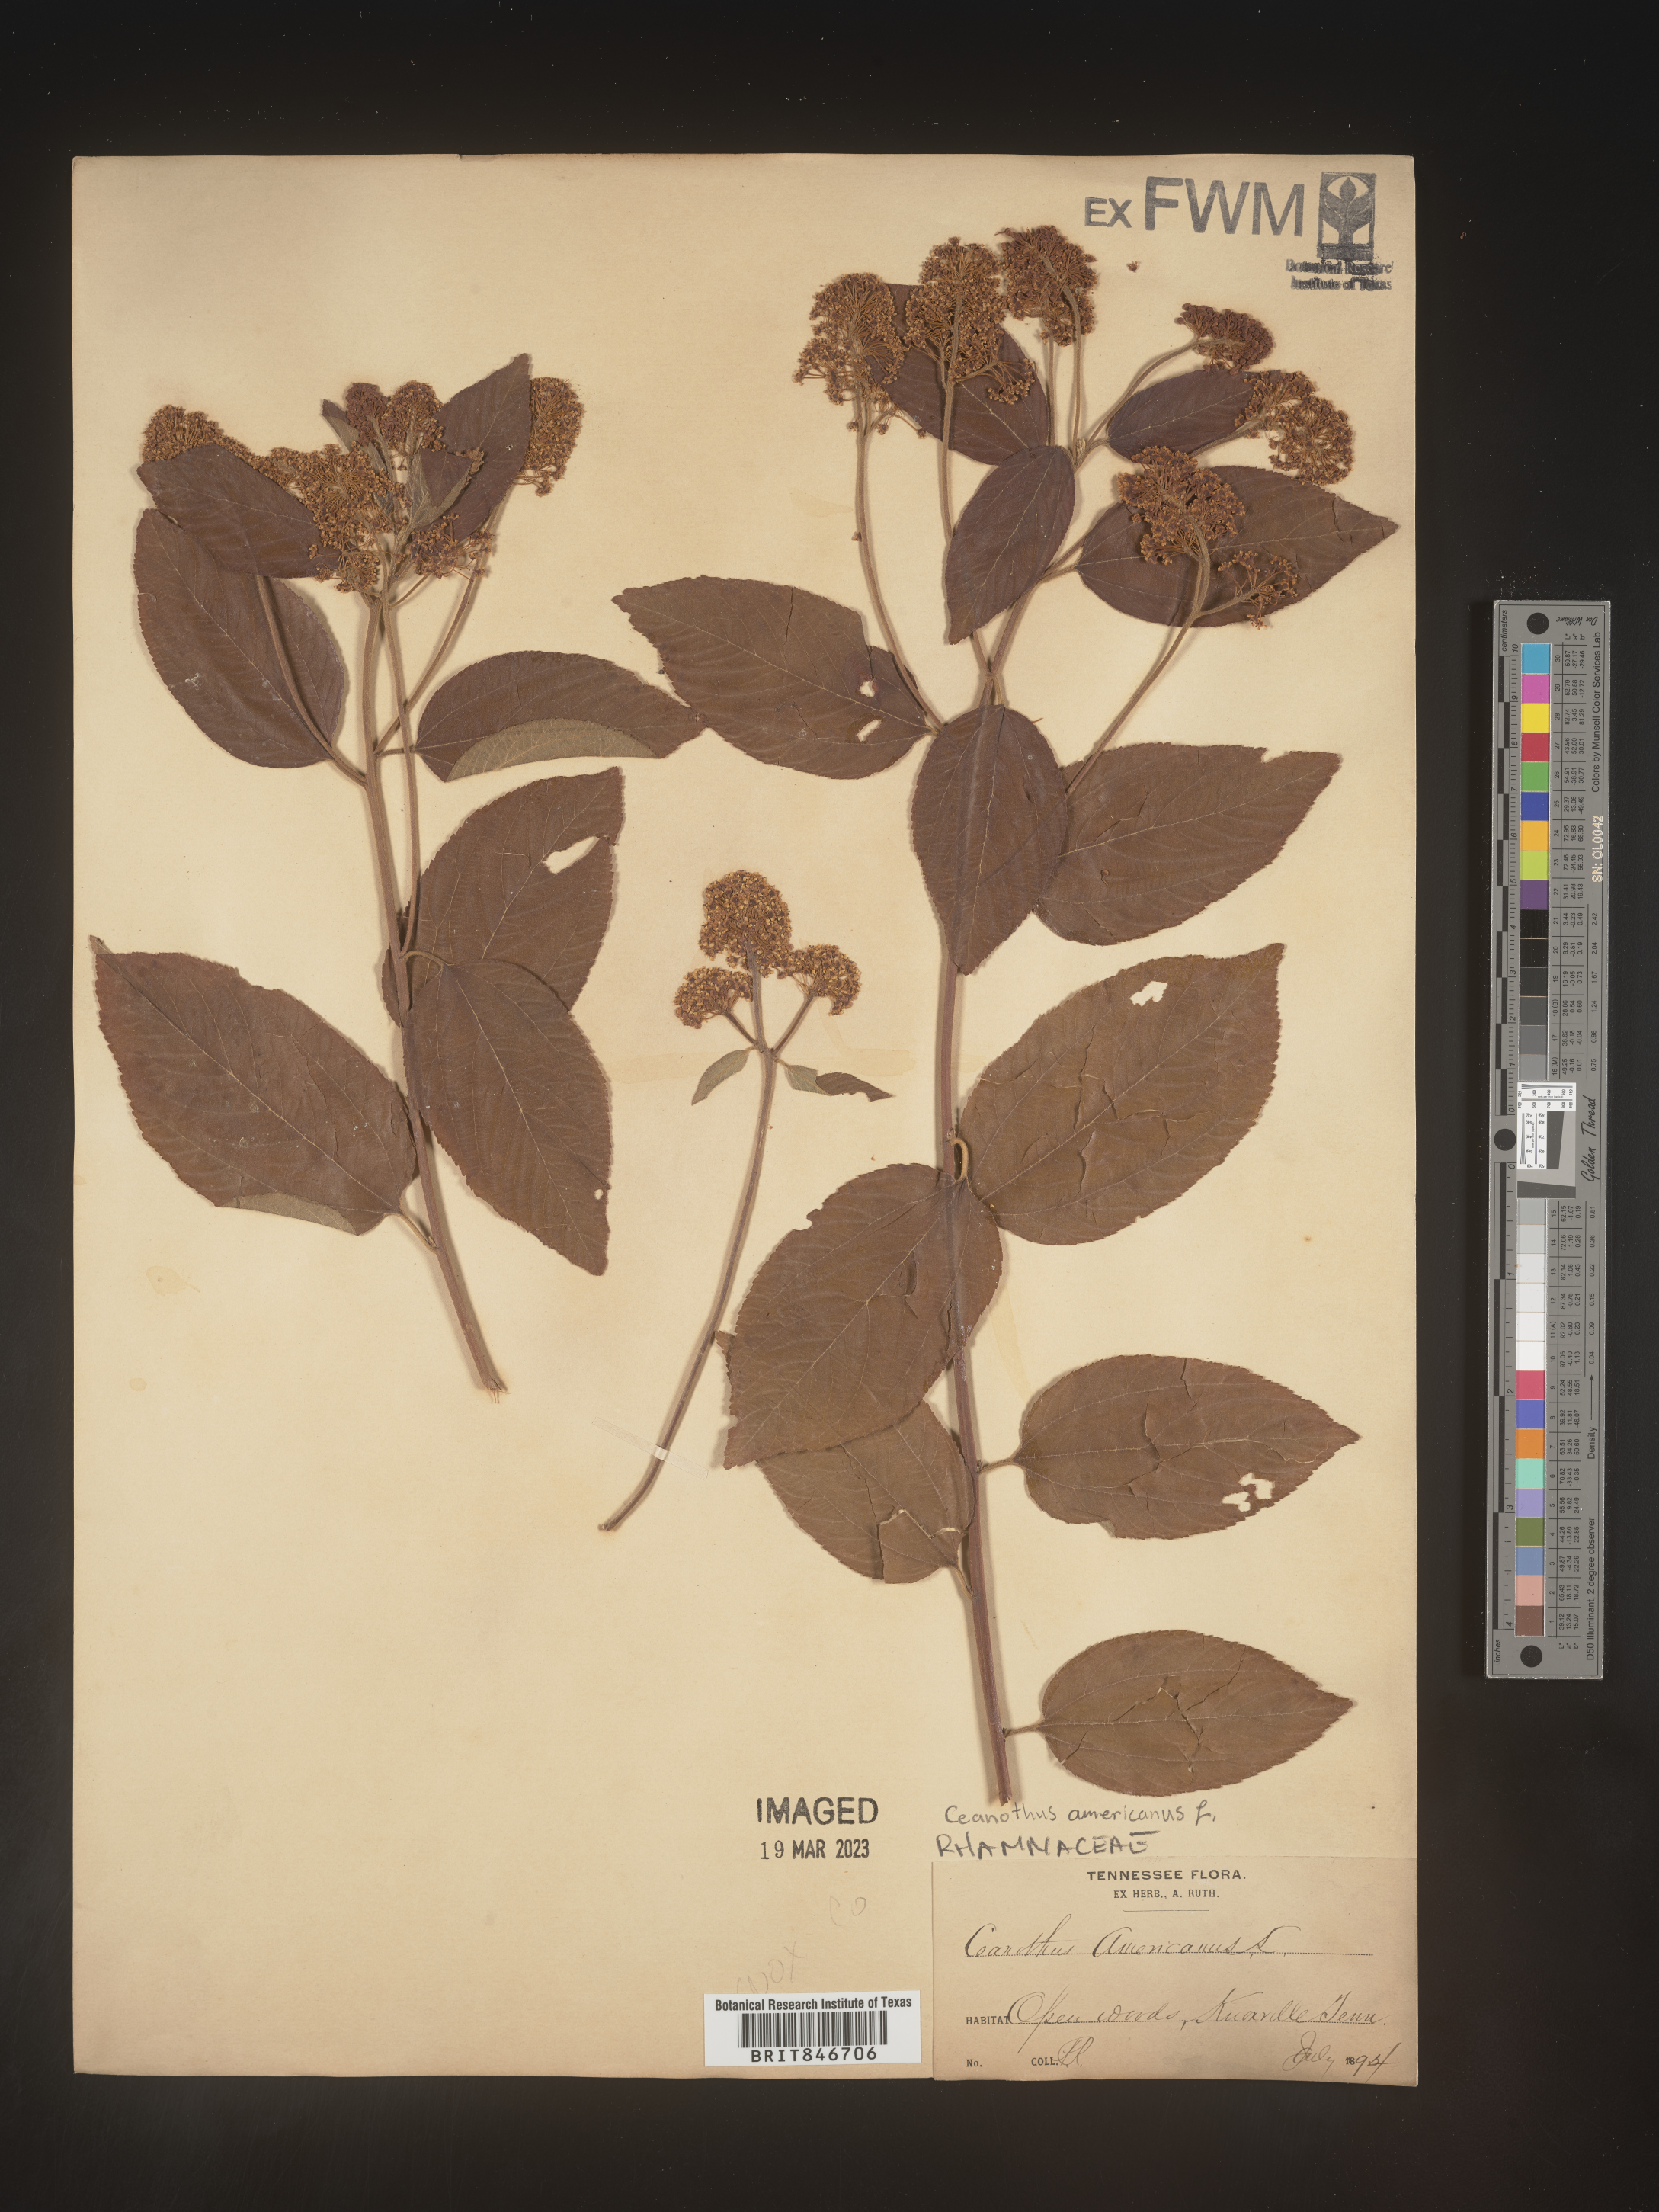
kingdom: Plantae
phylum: Tracheophyta
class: Magnoliopsida
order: Rosales
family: Rhamnaceae
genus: Ceanothus
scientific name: Ceanothus americanus
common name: Redroot
